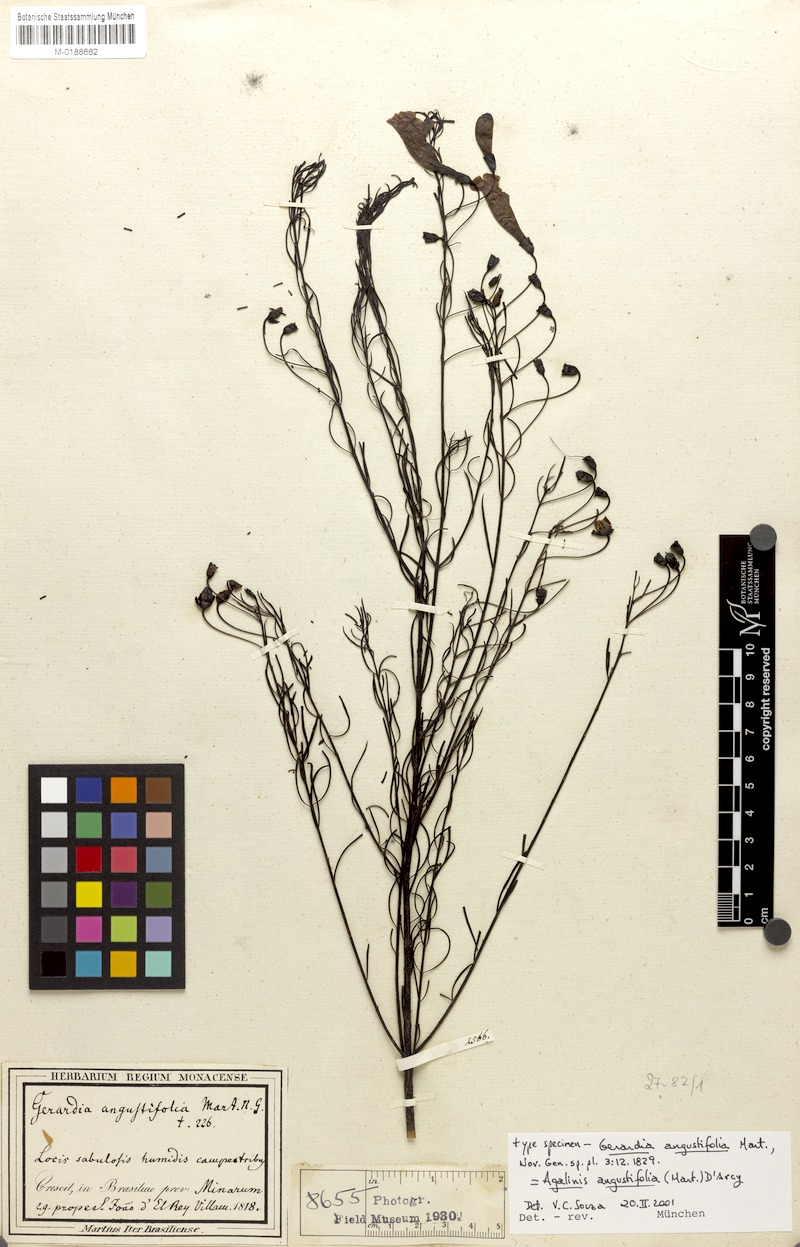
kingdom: Plantae
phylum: Tracheophyta
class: Magnoliopsida
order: Lamiales
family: Orobanchaceae
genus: Agalinis
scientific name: Agalinis angustifolia
